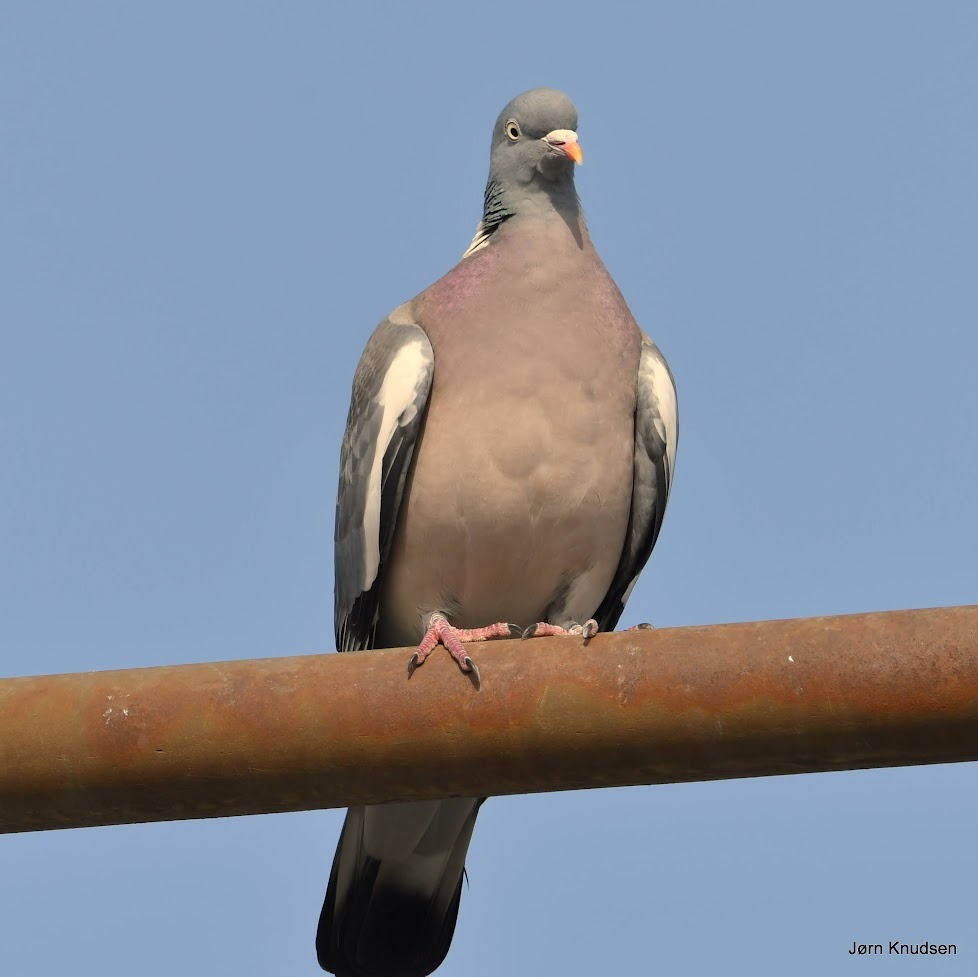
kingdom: Animalia
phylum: Chordata
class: Aves
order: Columbiformes
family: Columbidae
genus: Columba
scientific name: Columba palumbus
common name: Ringdue
